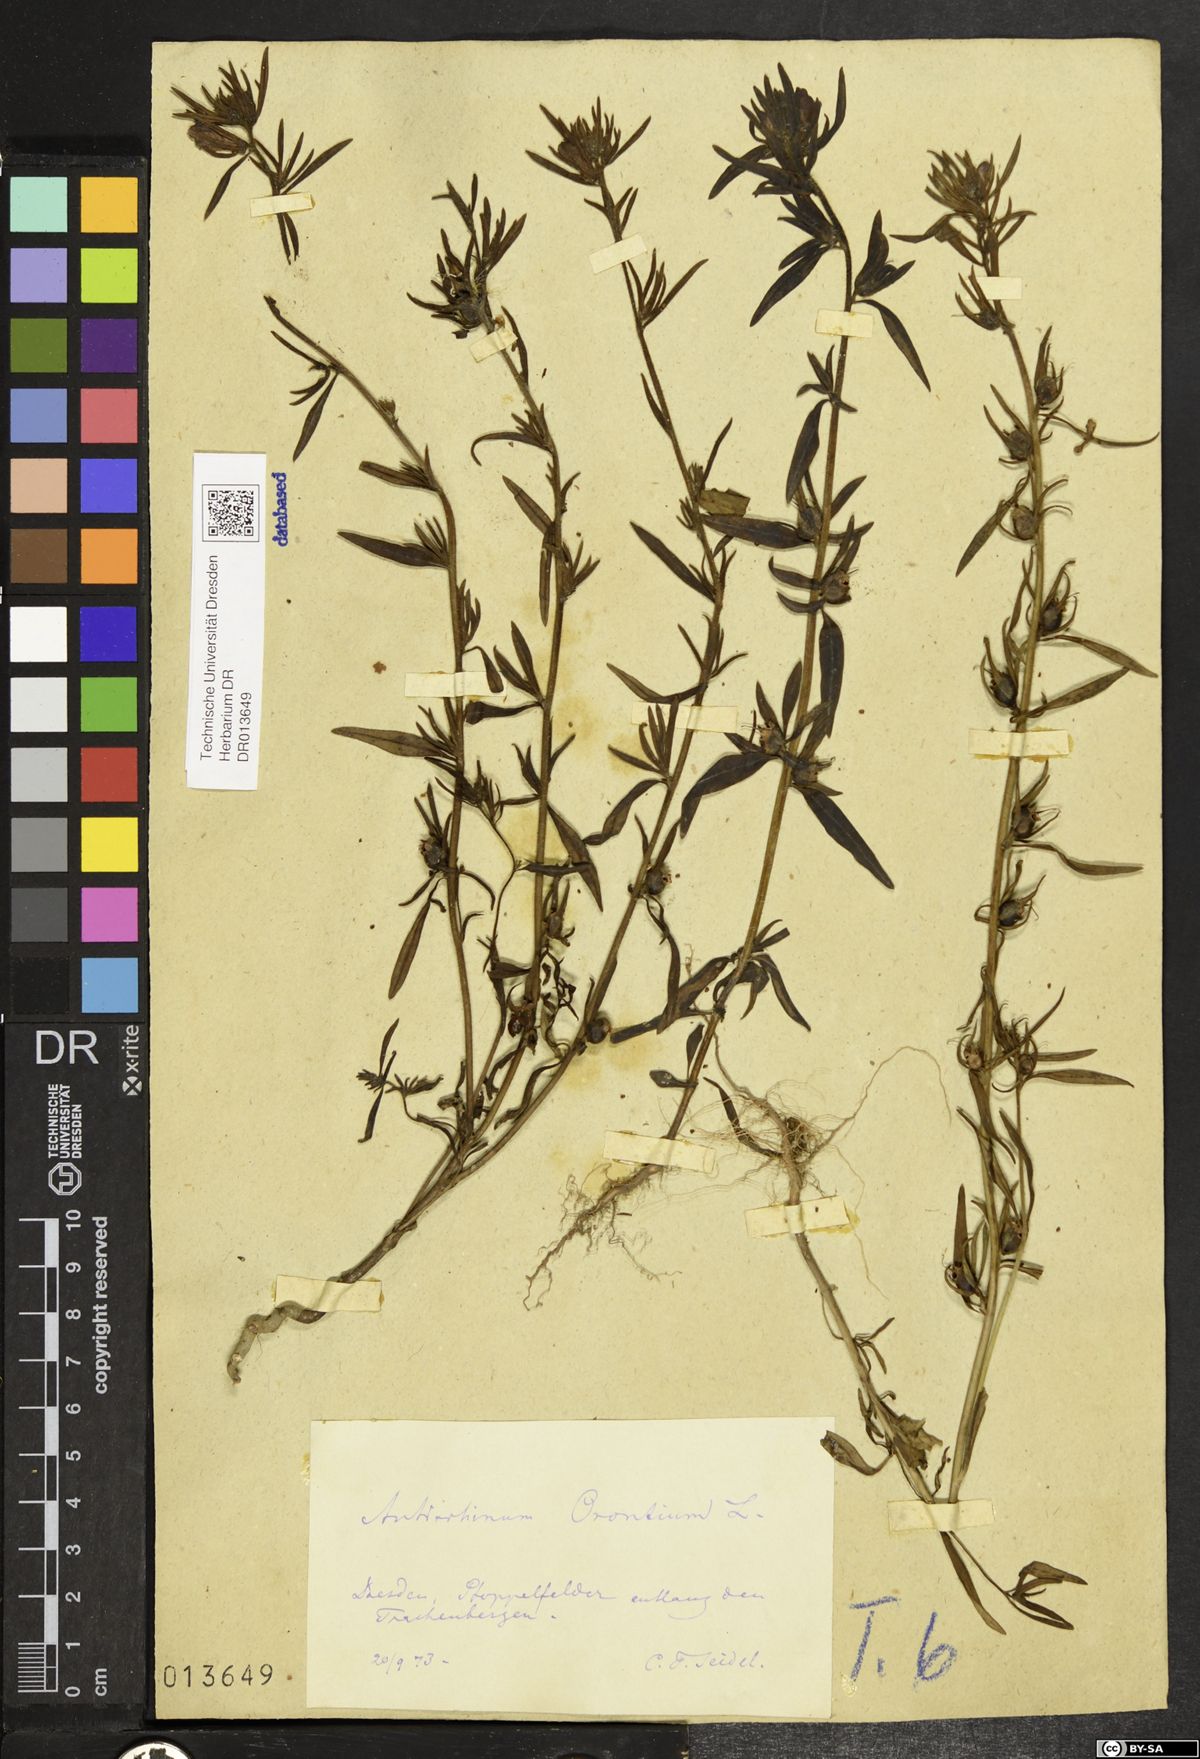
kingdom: Plantae
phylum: Tracheophyta
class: Magnoliopsida
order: Lamiales
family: Plantaginaceae
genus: Misopates
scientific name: Misopates orontium
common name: Weasel's-snout
